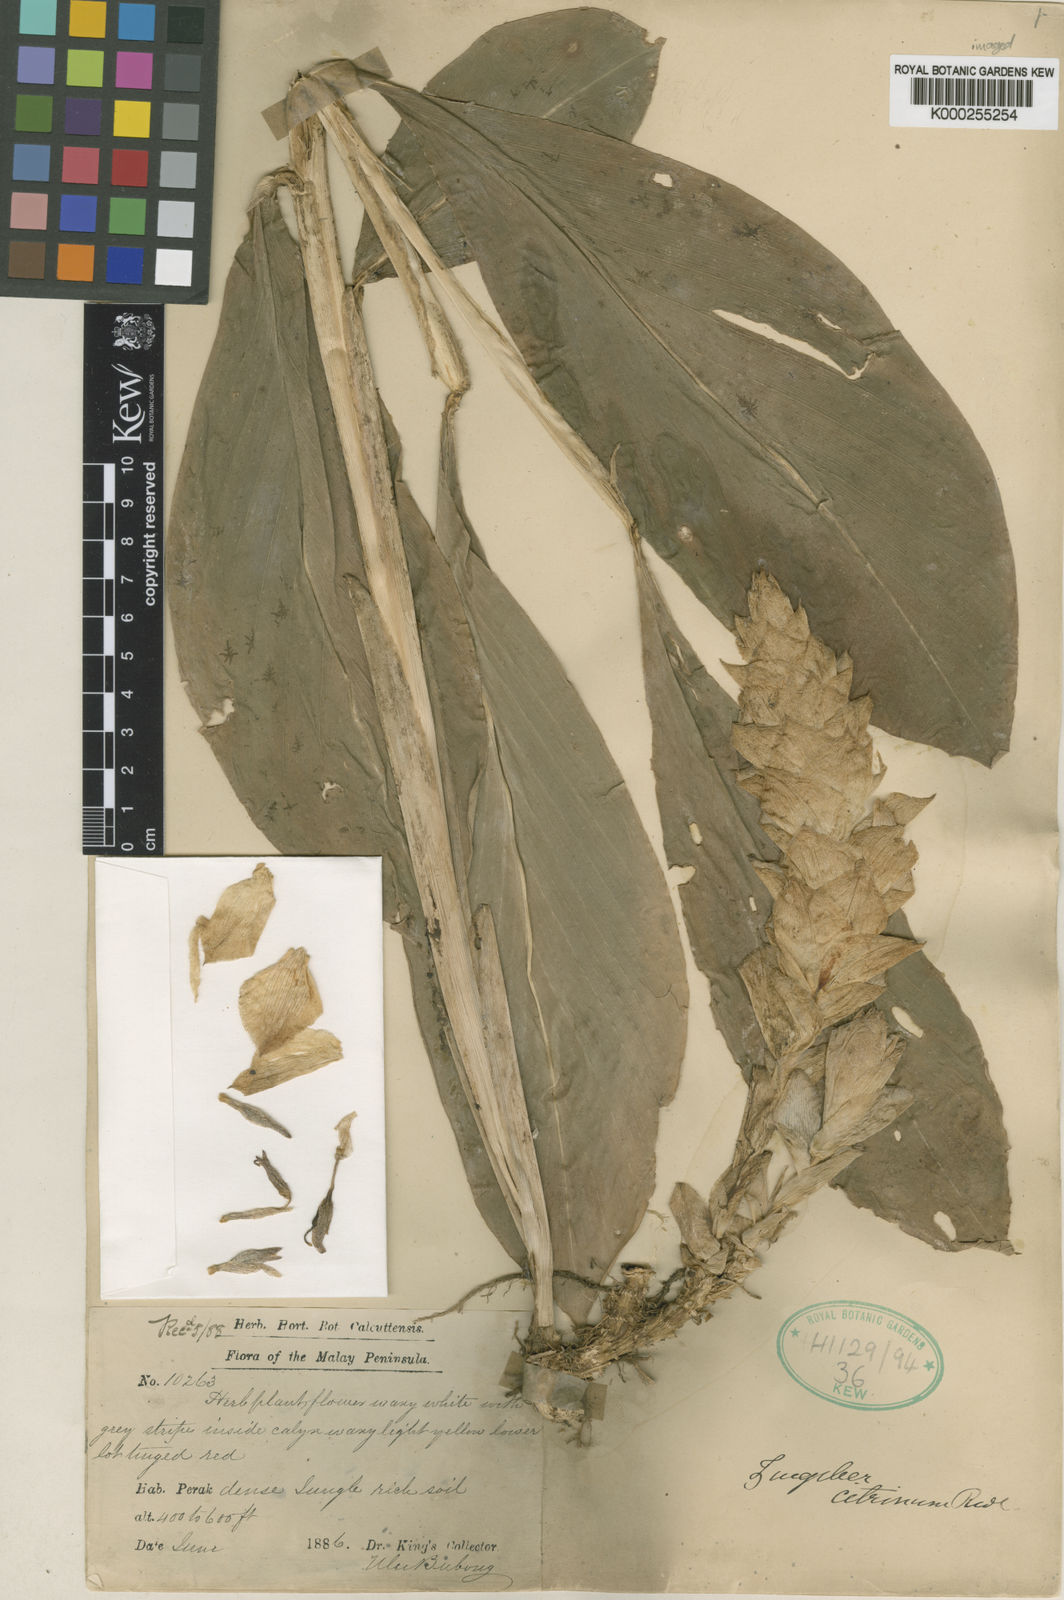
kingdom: Plantae
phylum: Tracheophyta
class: Liliopsida
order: Zingiberales
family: Zingiberaceae
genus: Zingiber
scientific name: Zingiber puberulum
